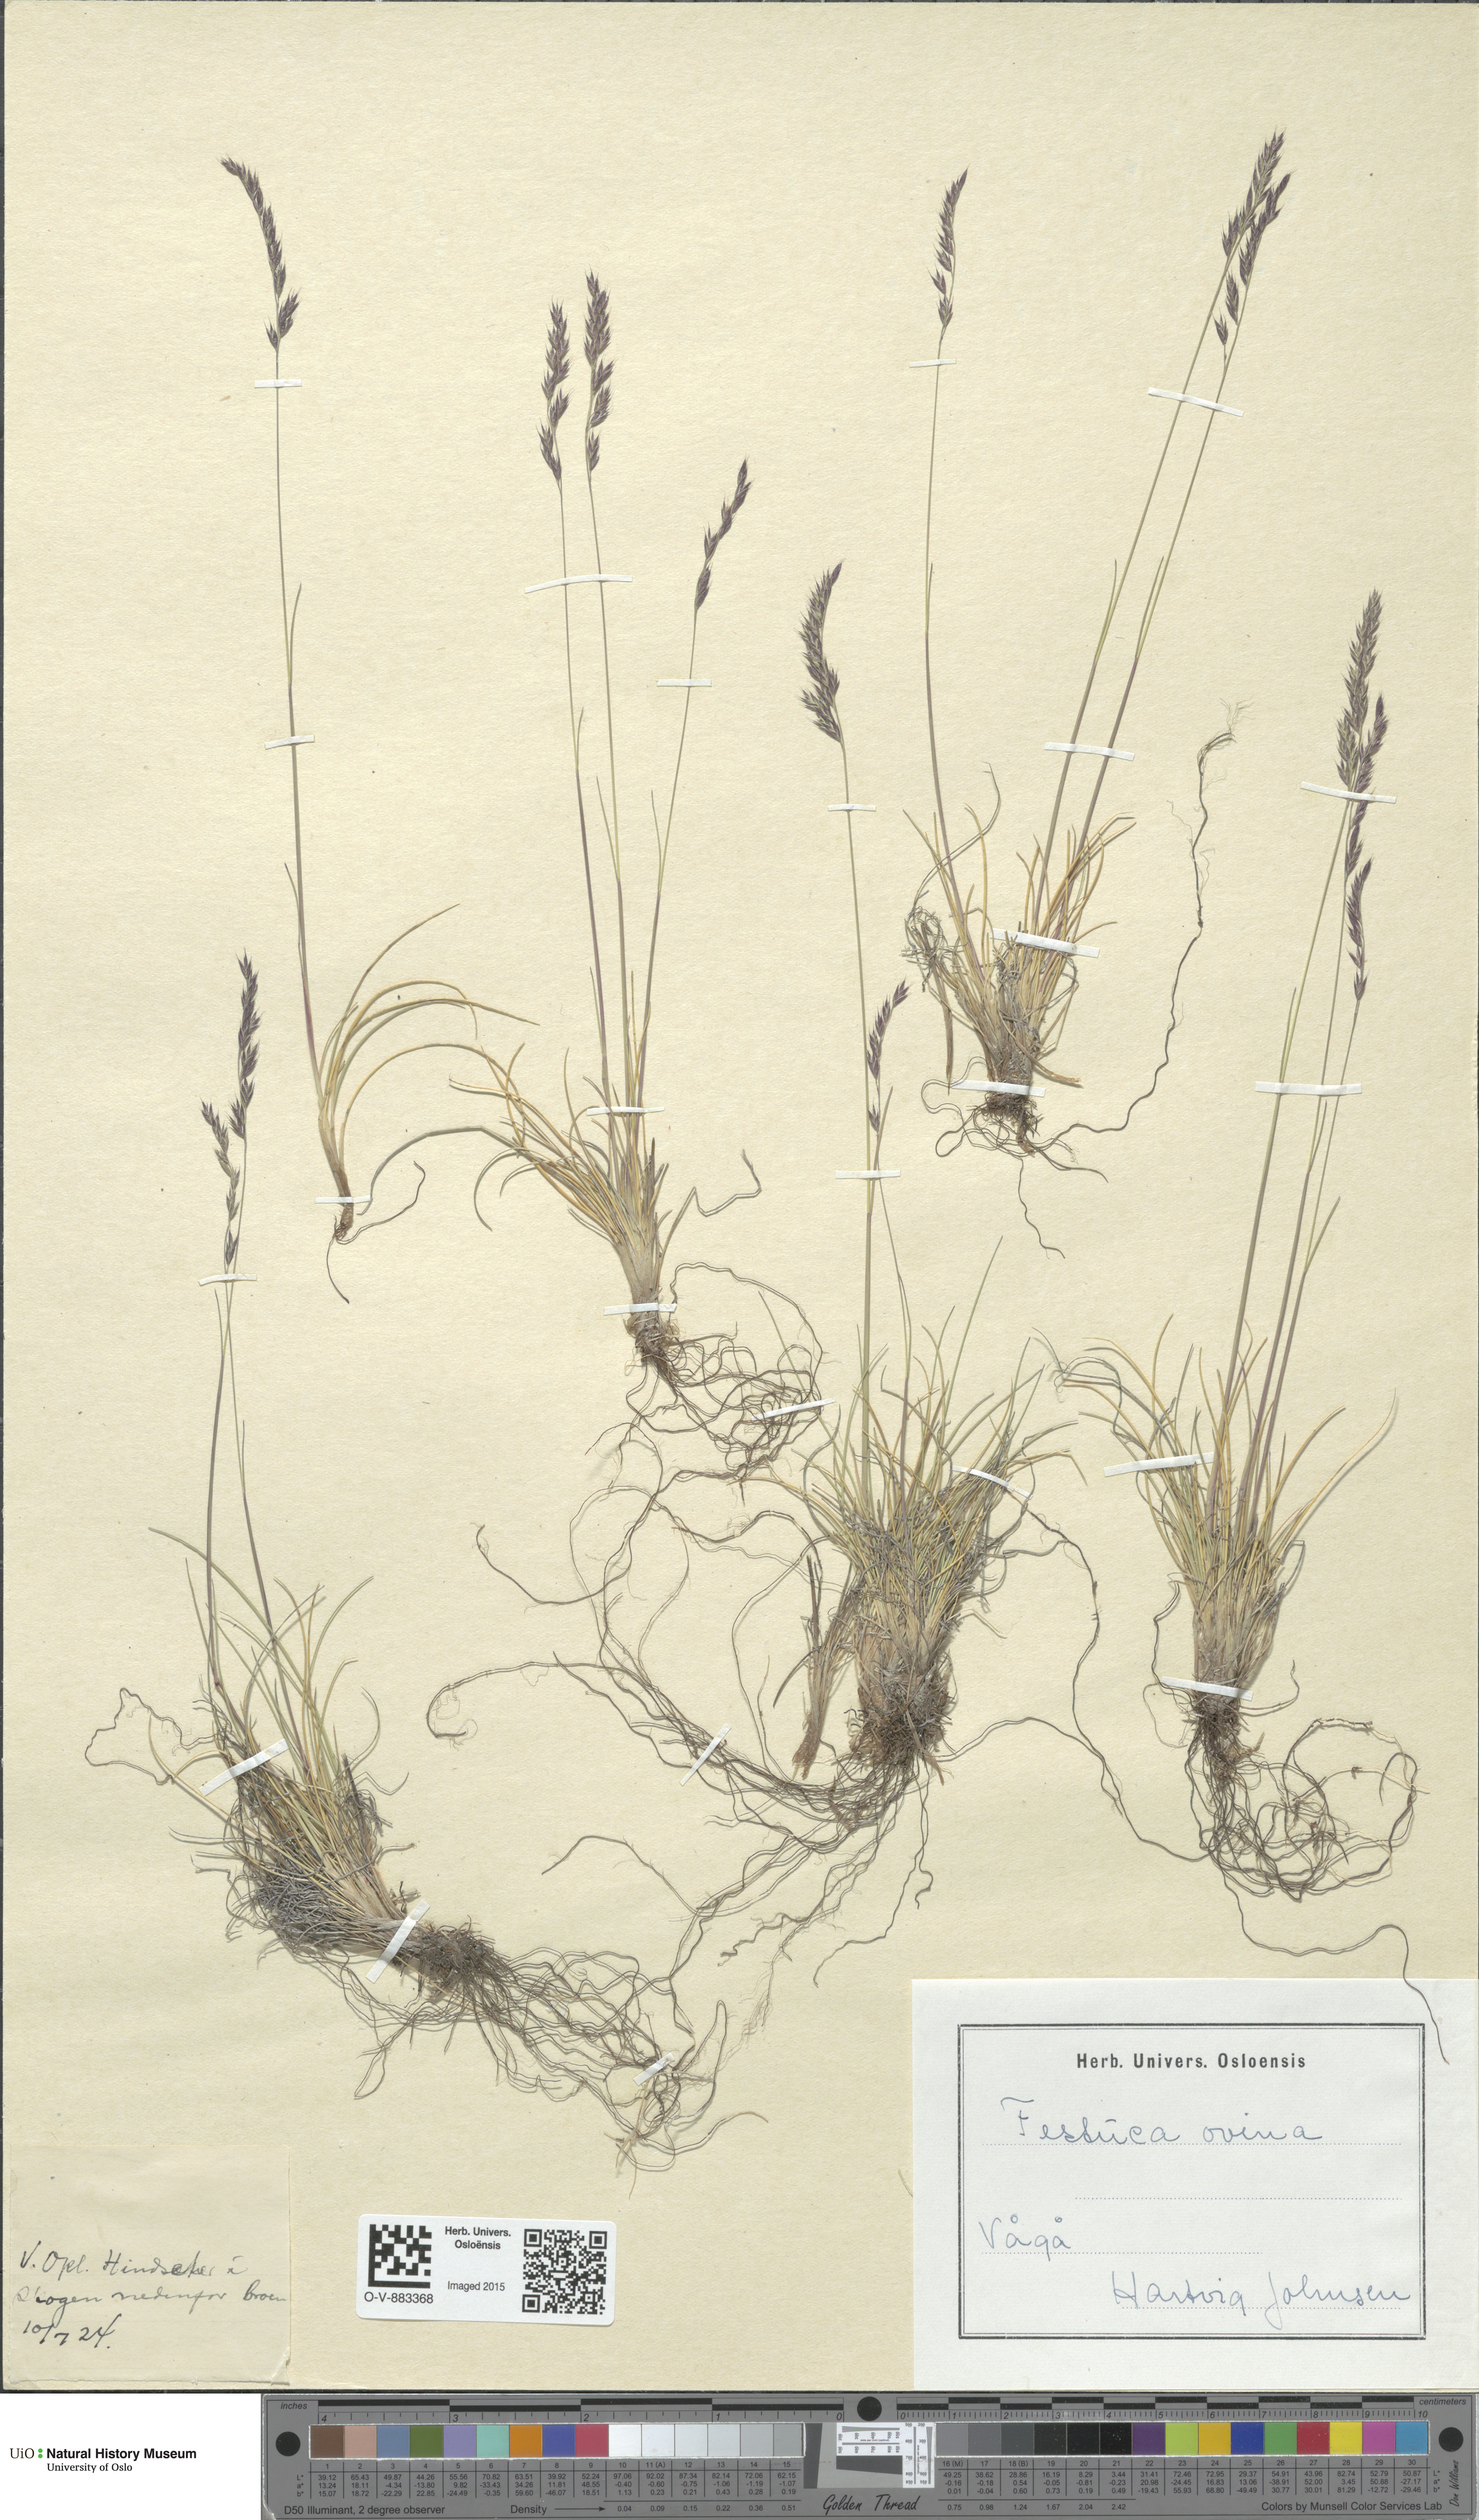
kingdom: Plantae
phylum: Tracheophyta
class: Liliopsida
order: Poales
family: Poaceae
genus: Festuca
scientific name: Festuca ovina
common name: Sheep fescue
